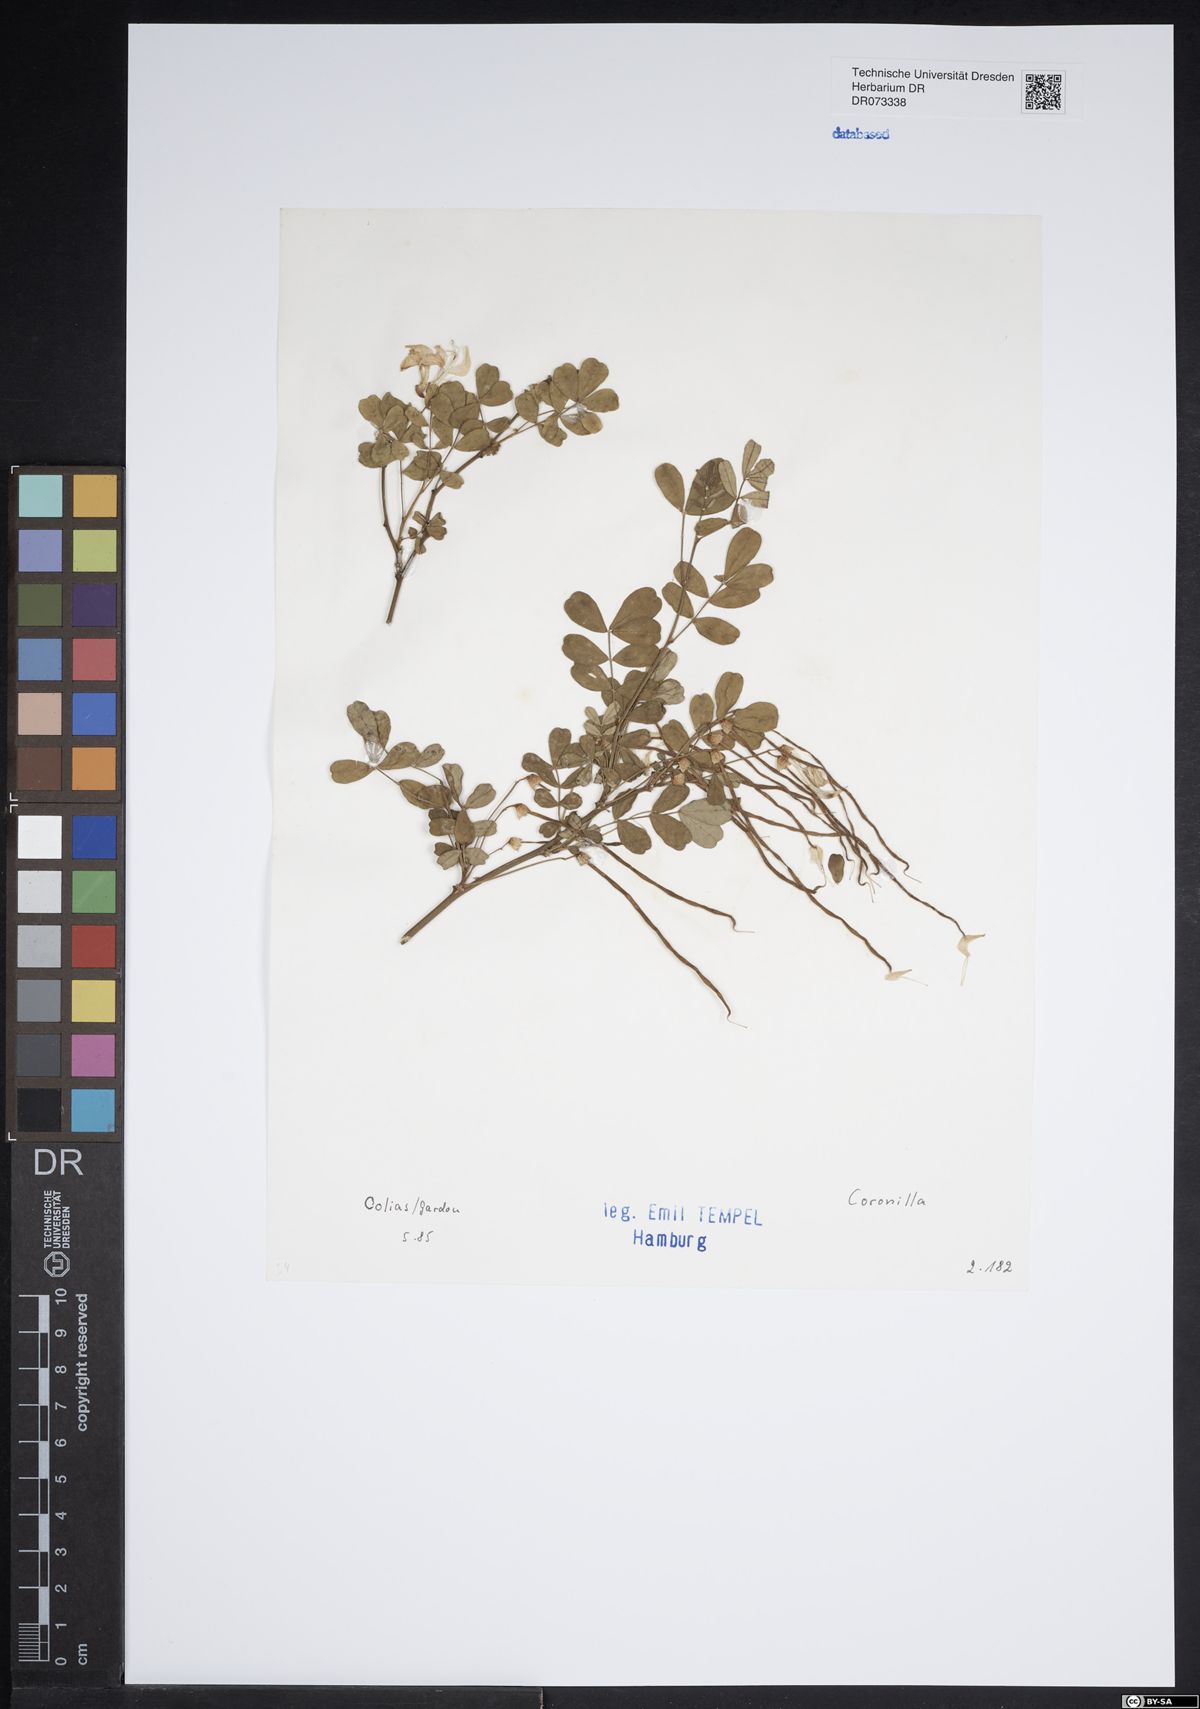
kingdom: Plantae
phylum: Tracheophyta
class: Magnoliopsida
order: Fabales
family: Fabaceae
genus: Coronilla
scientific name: Coronilla
